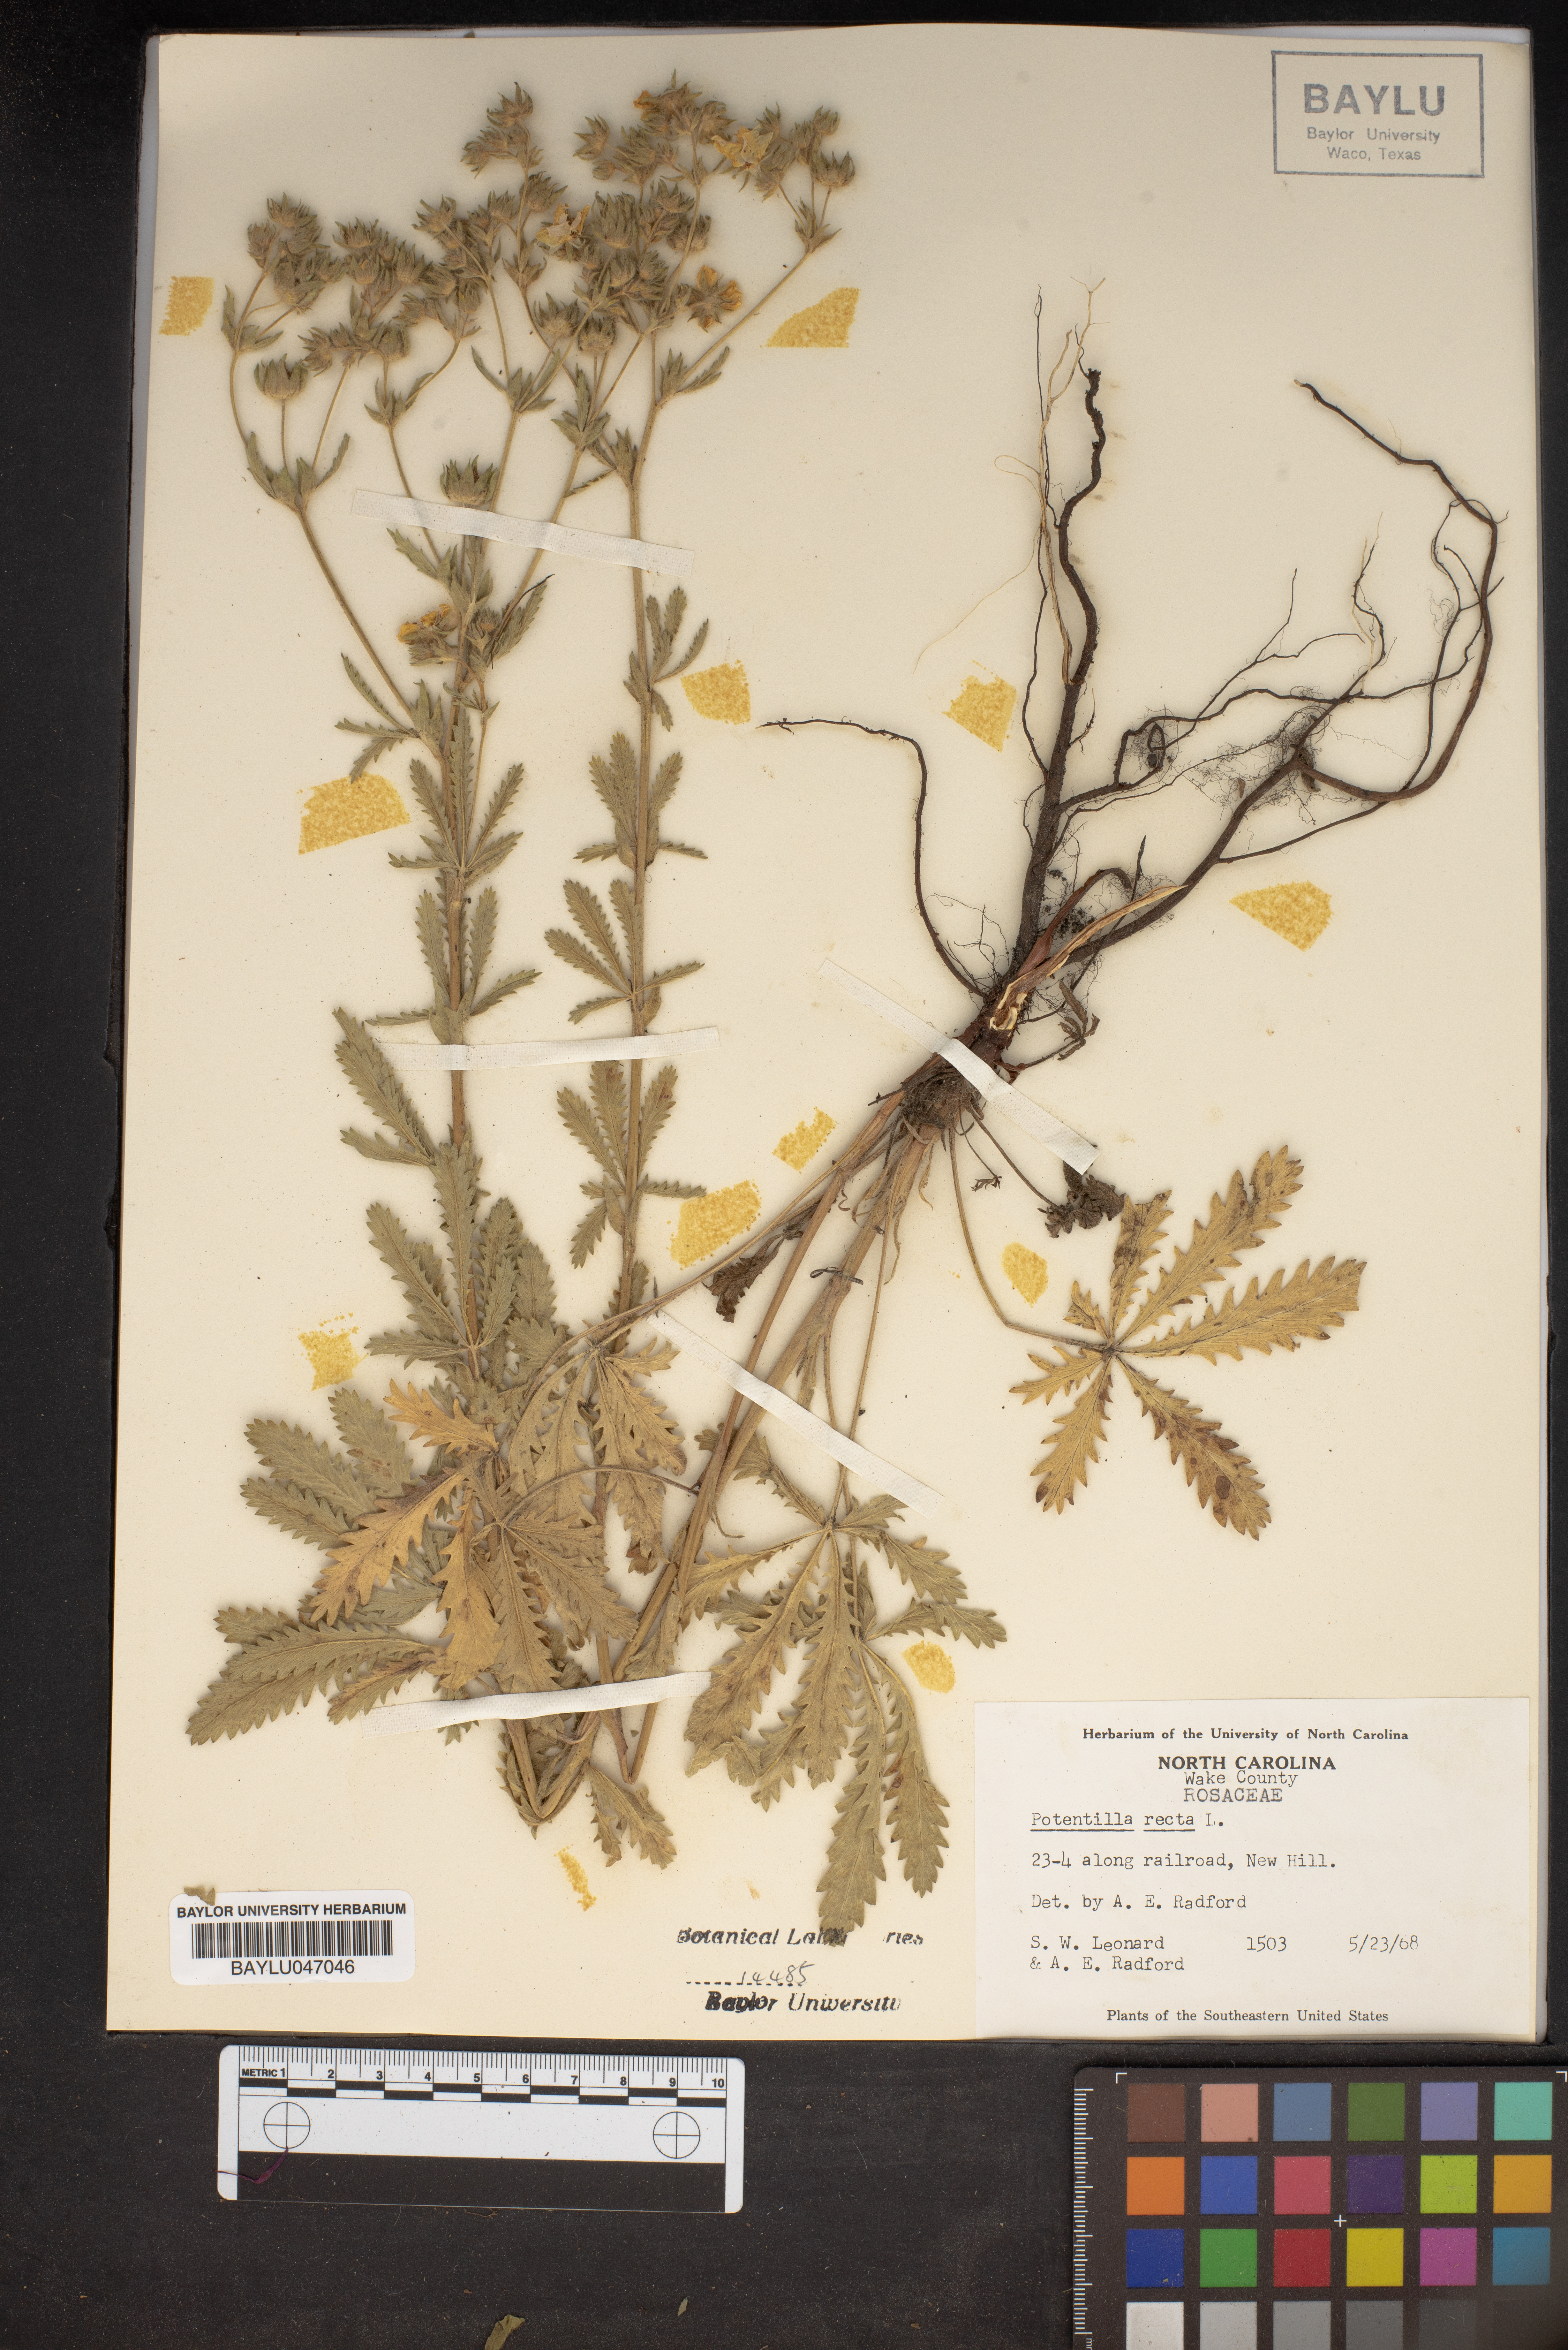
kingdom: Plantae
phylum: Tracheophyta
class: Magnoliopsida
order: Rosales
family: Rosaceae
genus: Potentilla
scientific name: Potentilla recta
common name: Sulphur cinquefoil
